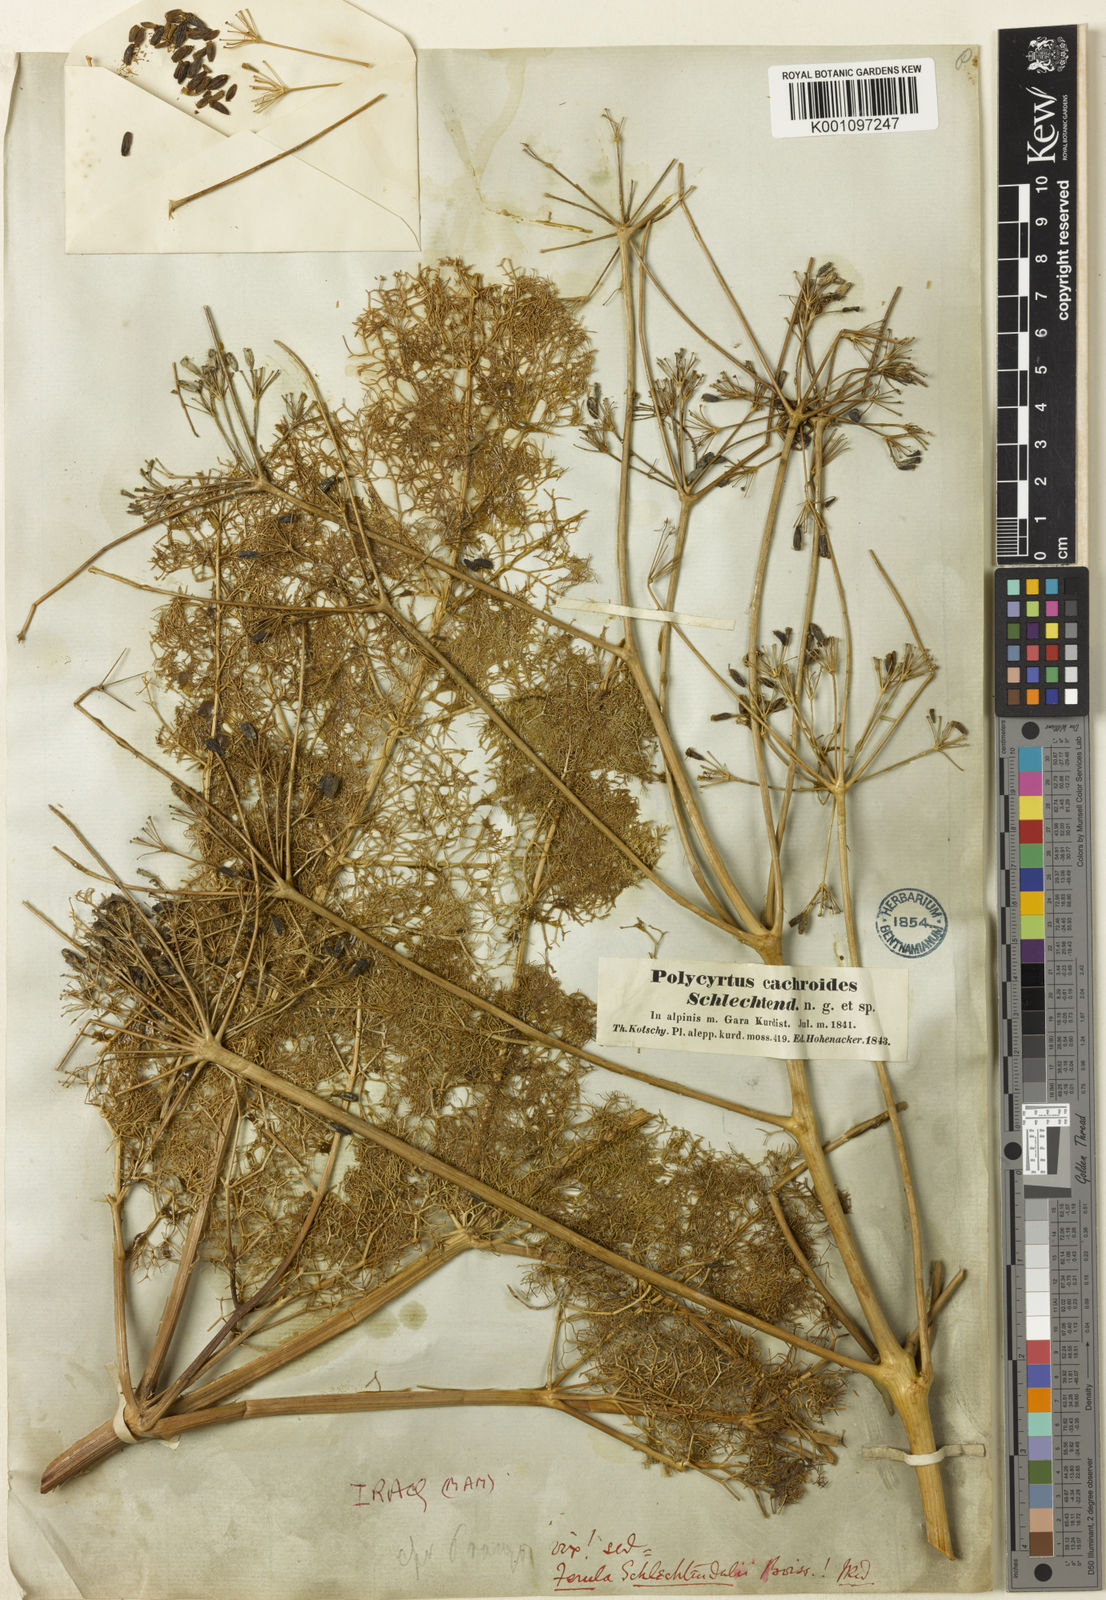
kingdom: Plantae
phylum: Tracheophyta
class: Magnoliopsida
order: Apiales
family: Apiaceae
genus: Ferula
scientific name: Ferula orientalis
